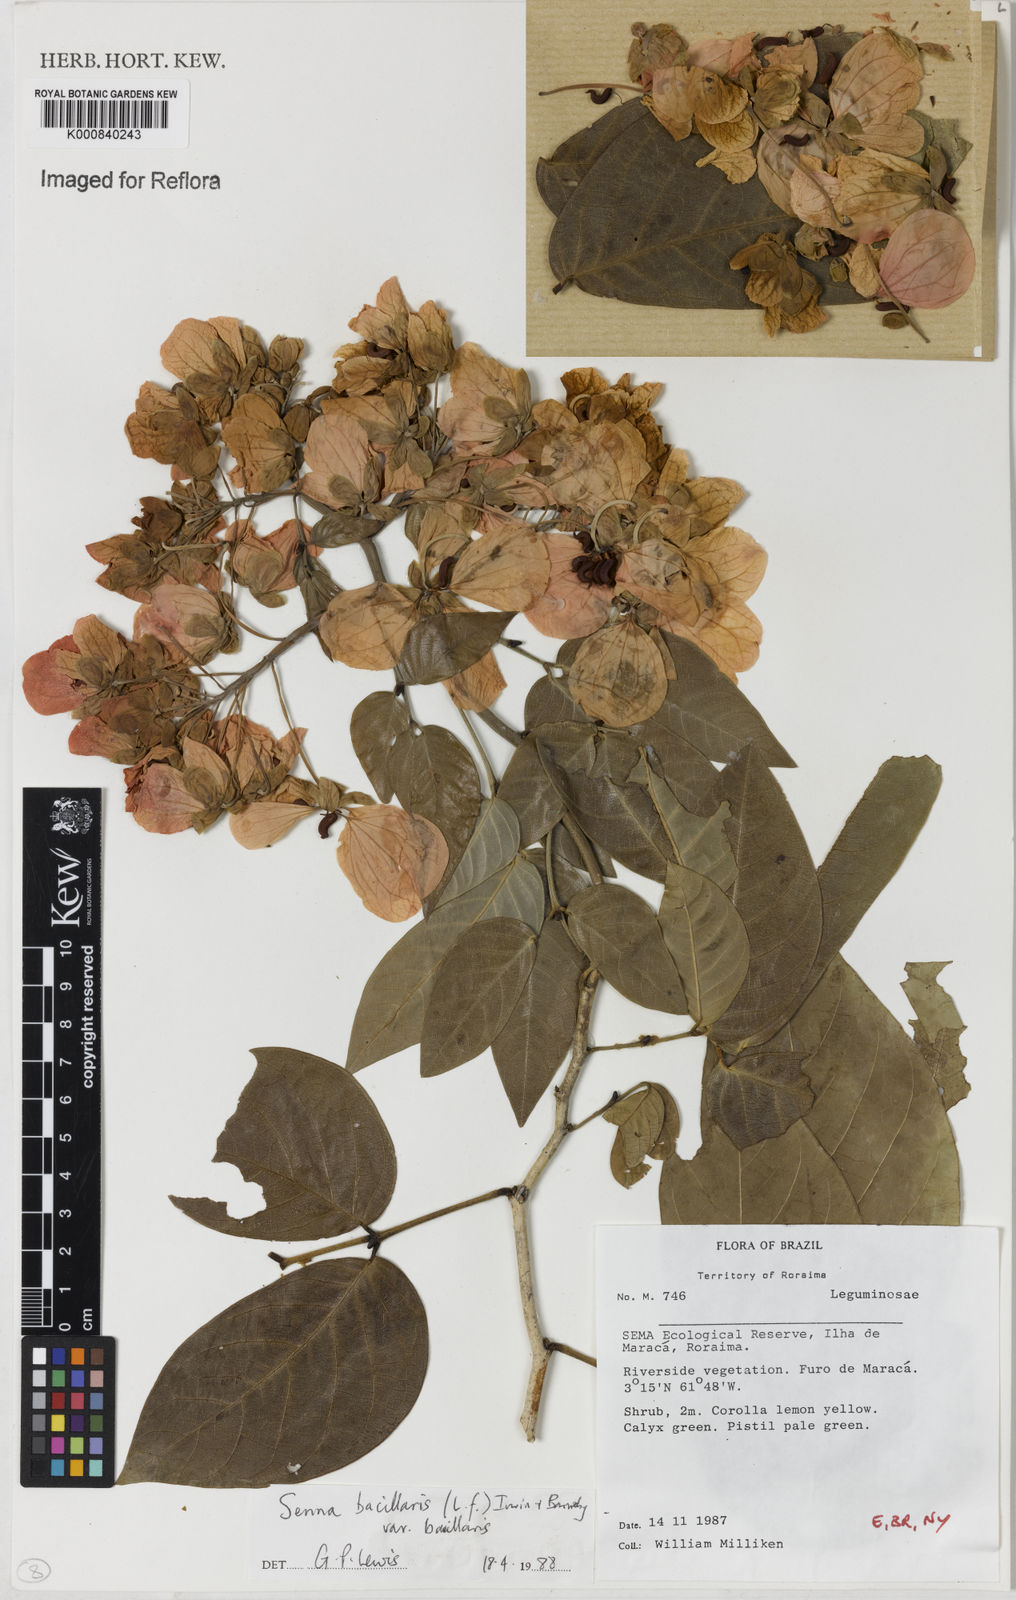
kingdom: Plantae
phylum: Tracheophyta
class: Magnoliopsida
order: Fabales
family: Fabaceae
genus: Senna
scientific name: Senna bacillaris
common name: West indian showertree
